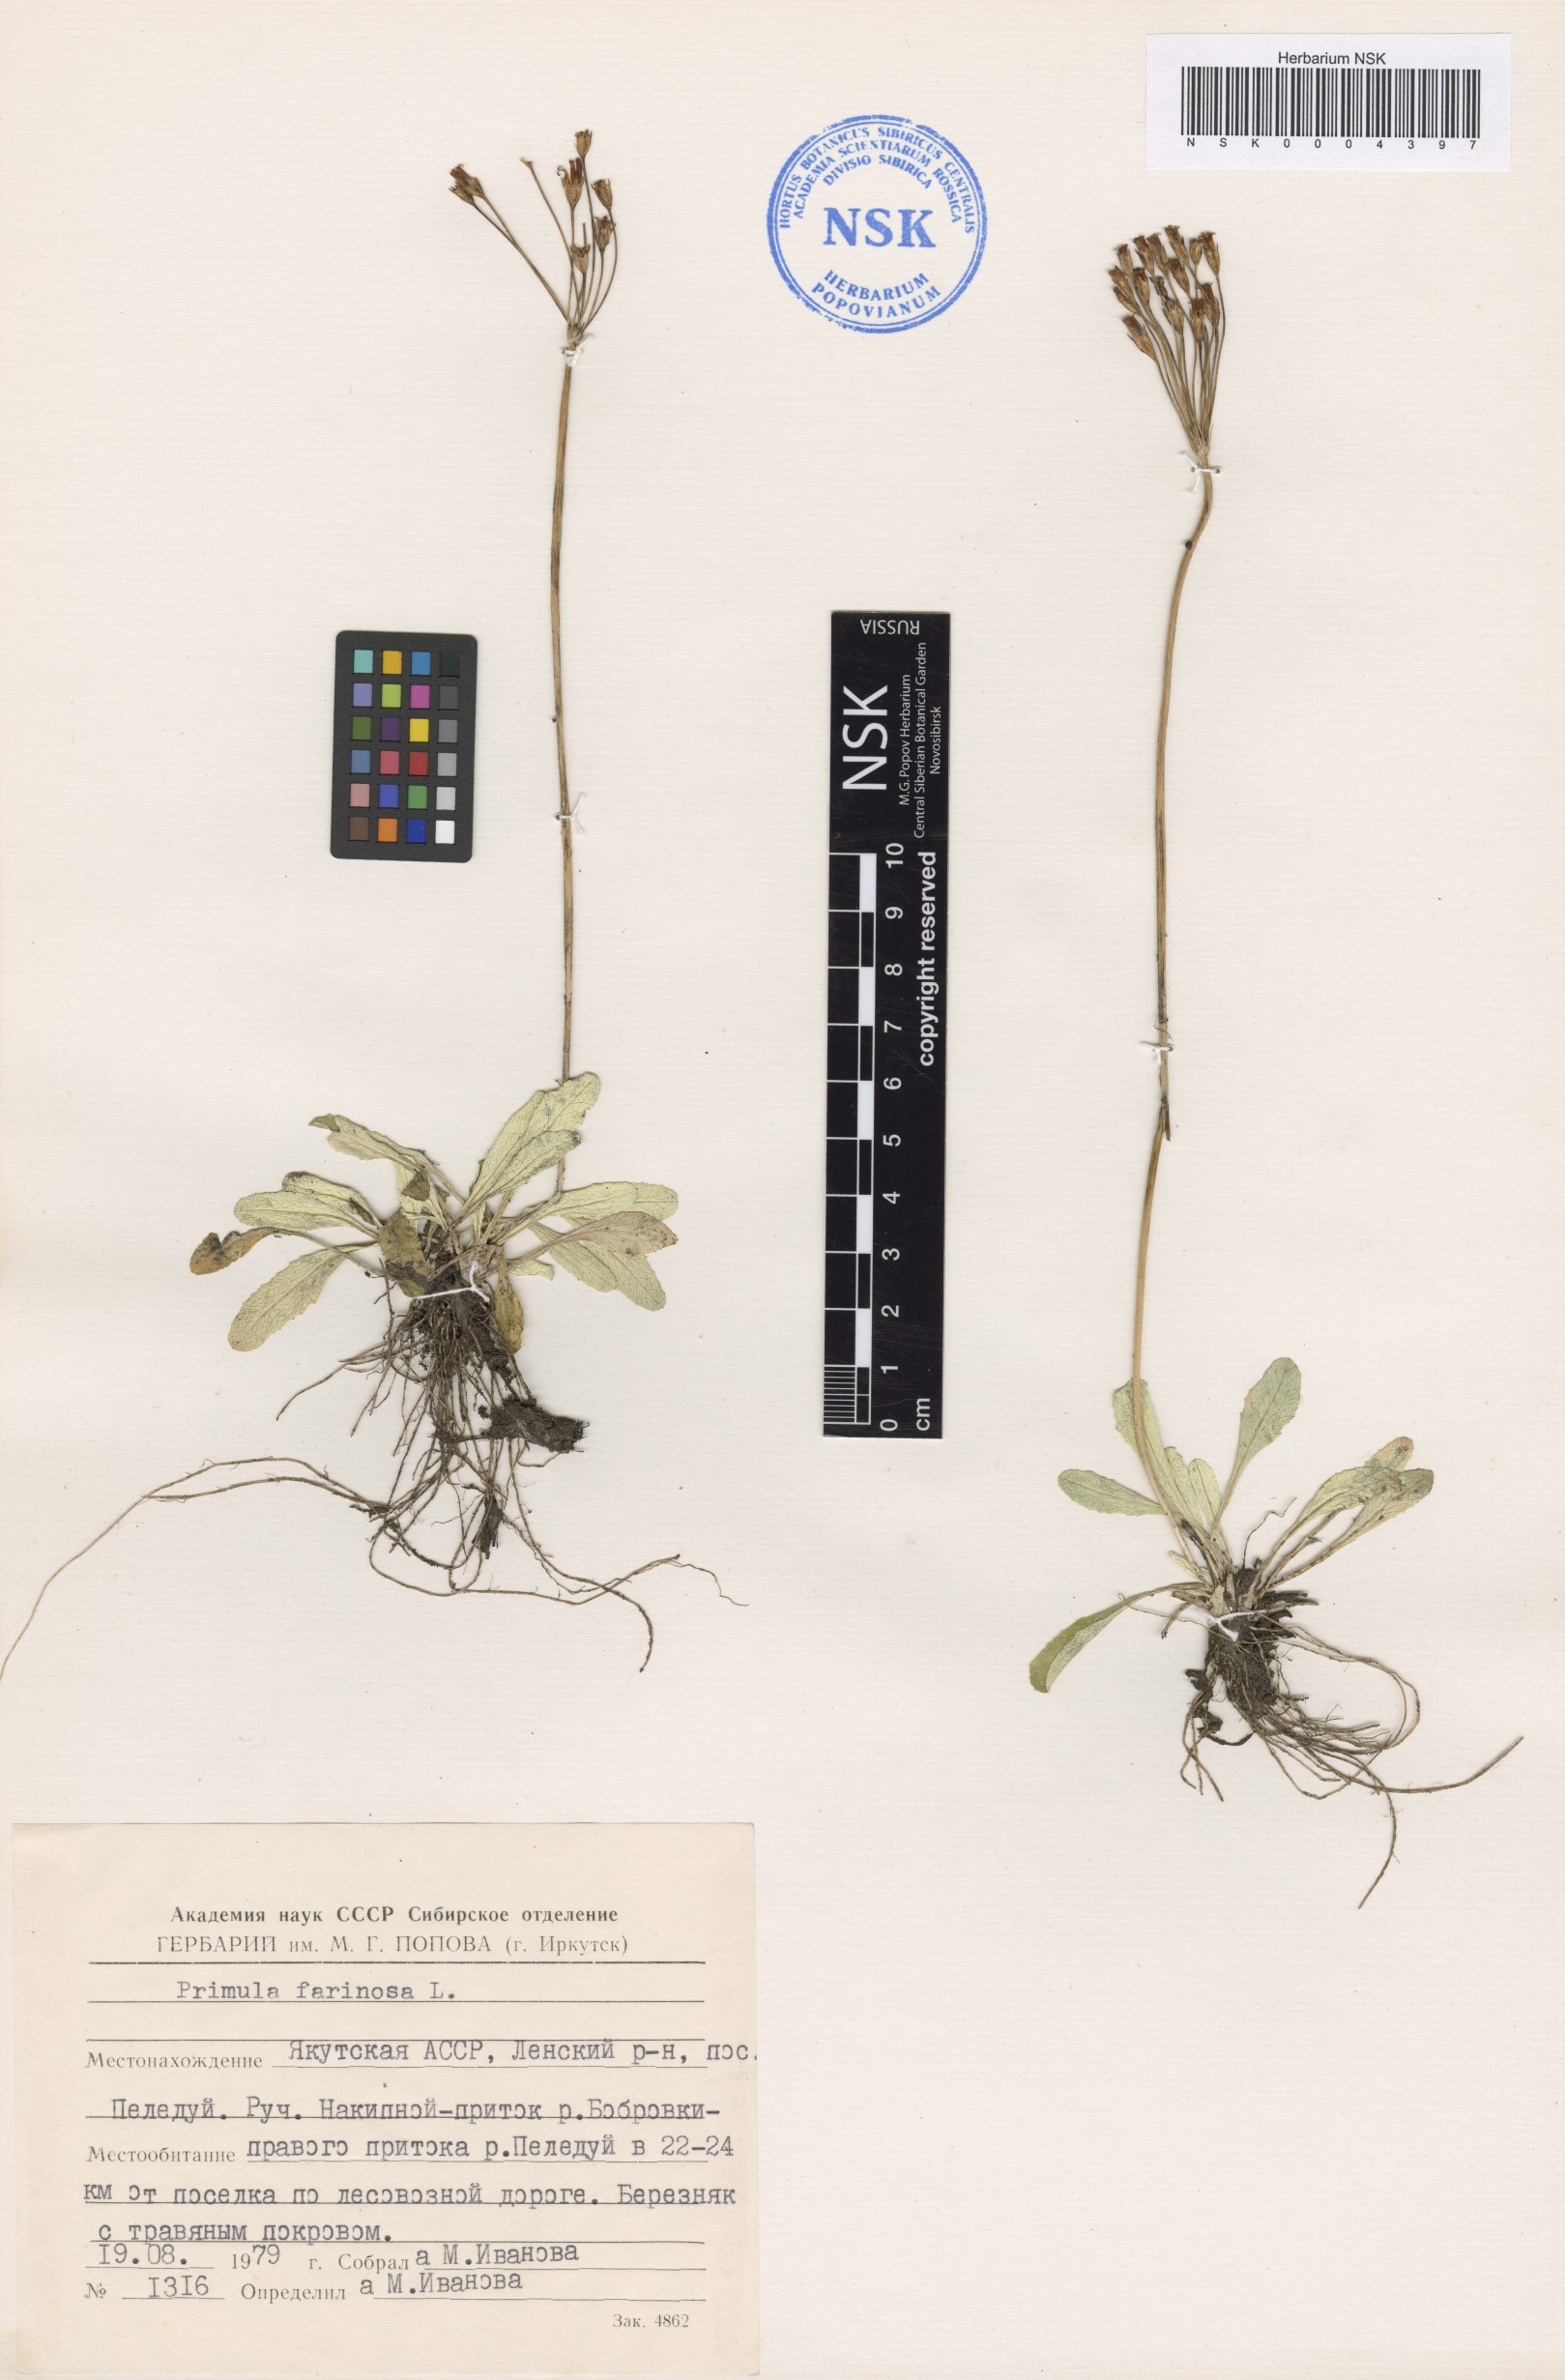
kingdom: Plantae
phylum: Tracheophyta
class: Magnoliopsida
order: Ericales
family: Primulaceae
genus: Primula
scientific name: Primula farinosa
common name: Bird's-eye primrose
